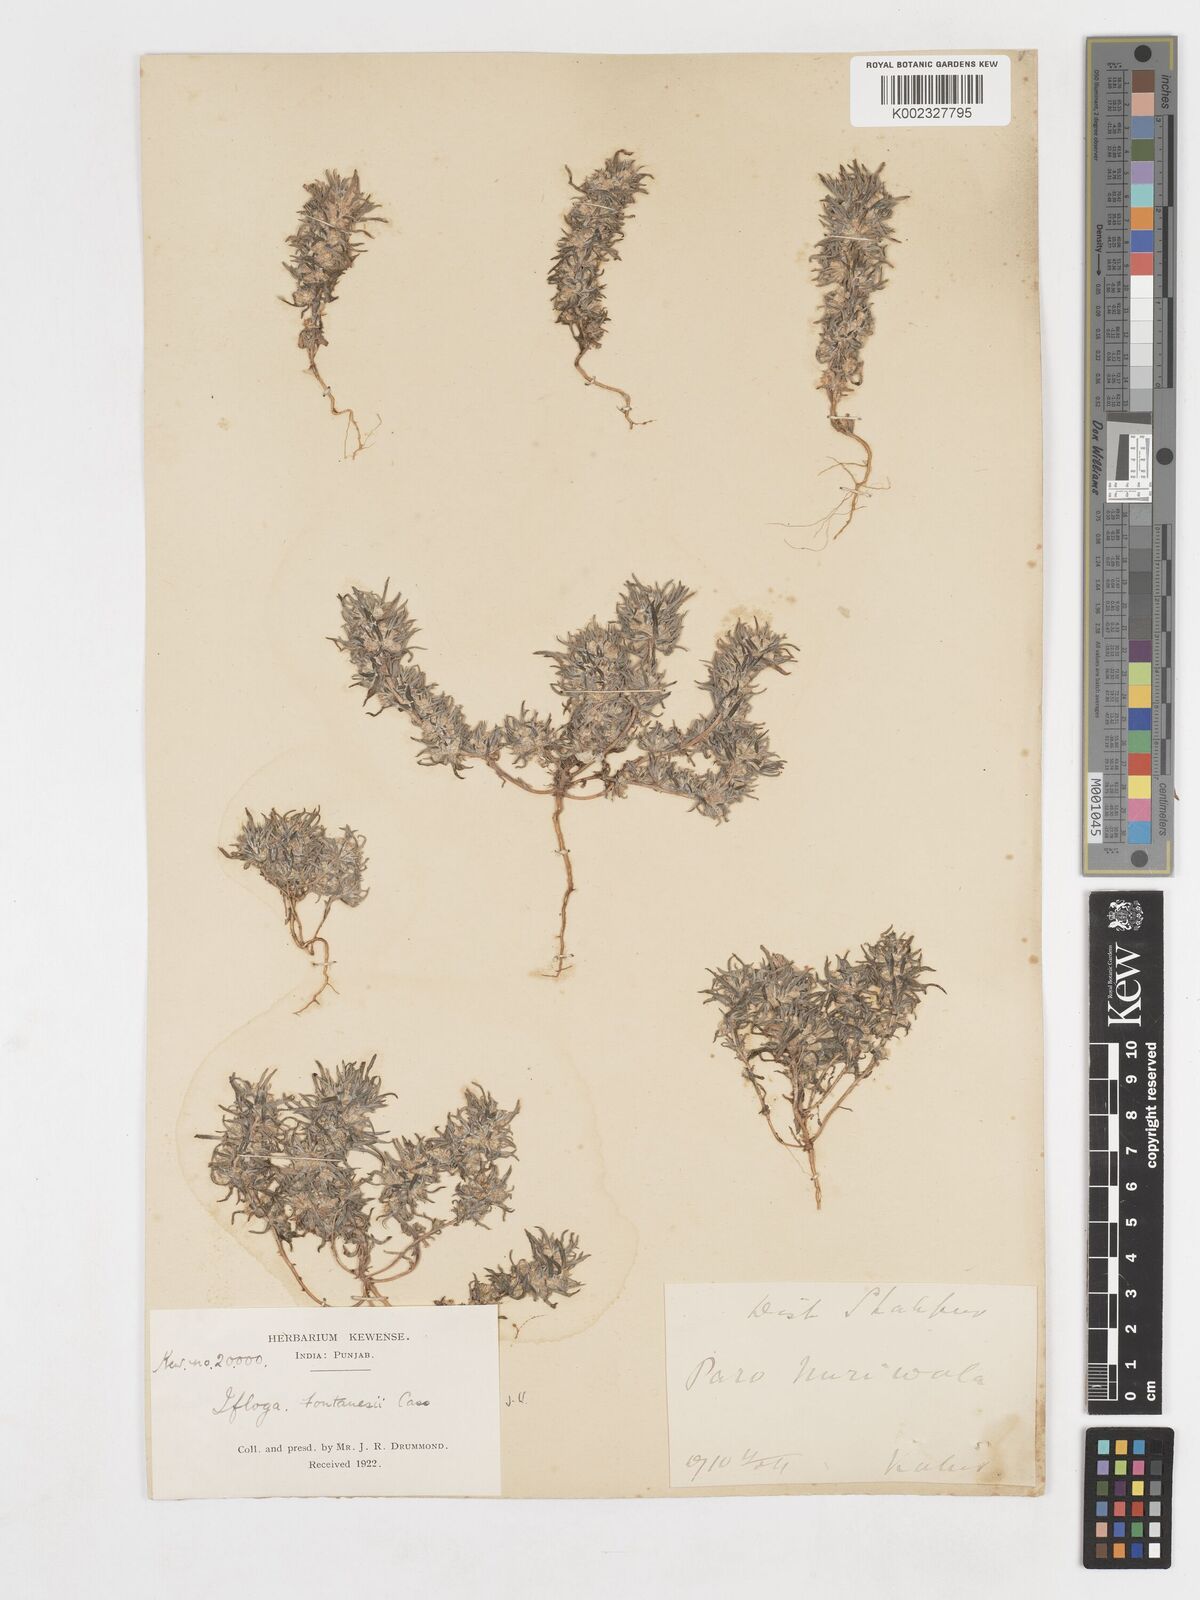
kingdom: Plantae
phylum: Tracheophyta
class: Magnoliopsida
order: Asterales
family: Asteraceae
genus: Ifloga
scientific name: Ifloga spicata
